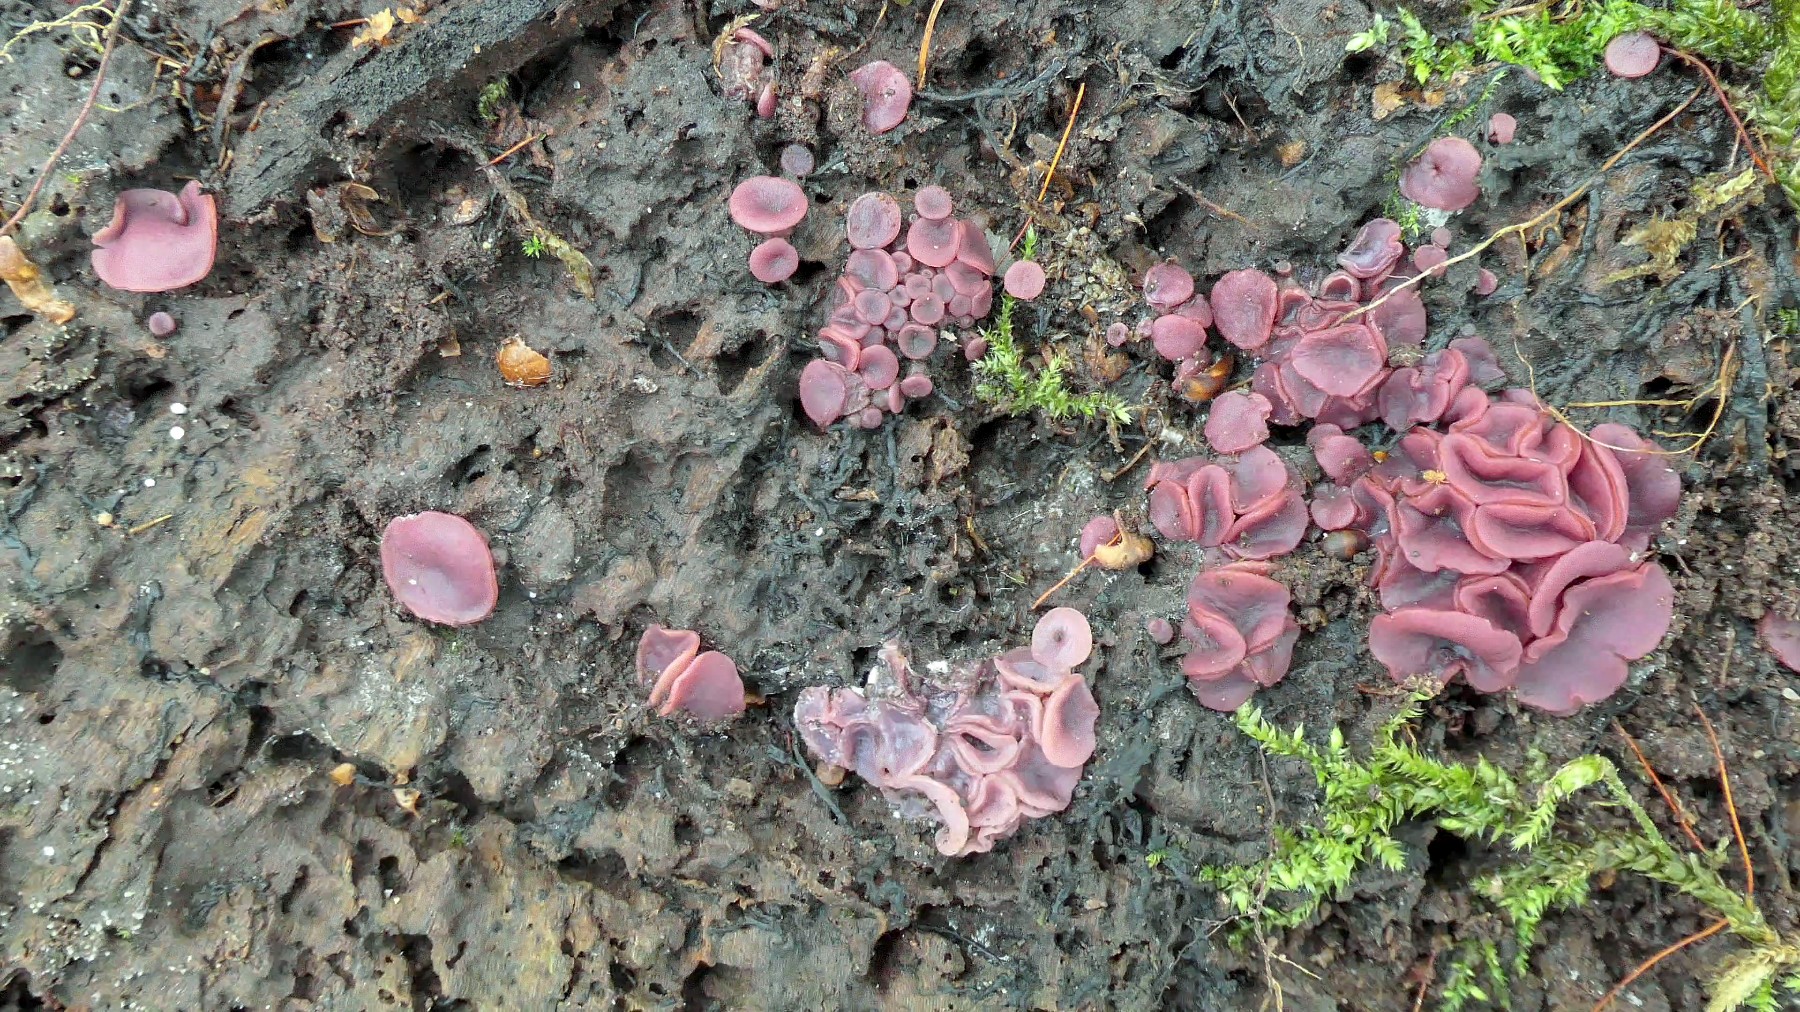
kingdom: Fungi
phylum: Ascomycota
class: Leotiomycetes
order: Helotiales
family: Gelatinodiscaceae
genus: Ascocoryne
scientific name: Ascocoryne cylichnium
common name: stor sejskive
